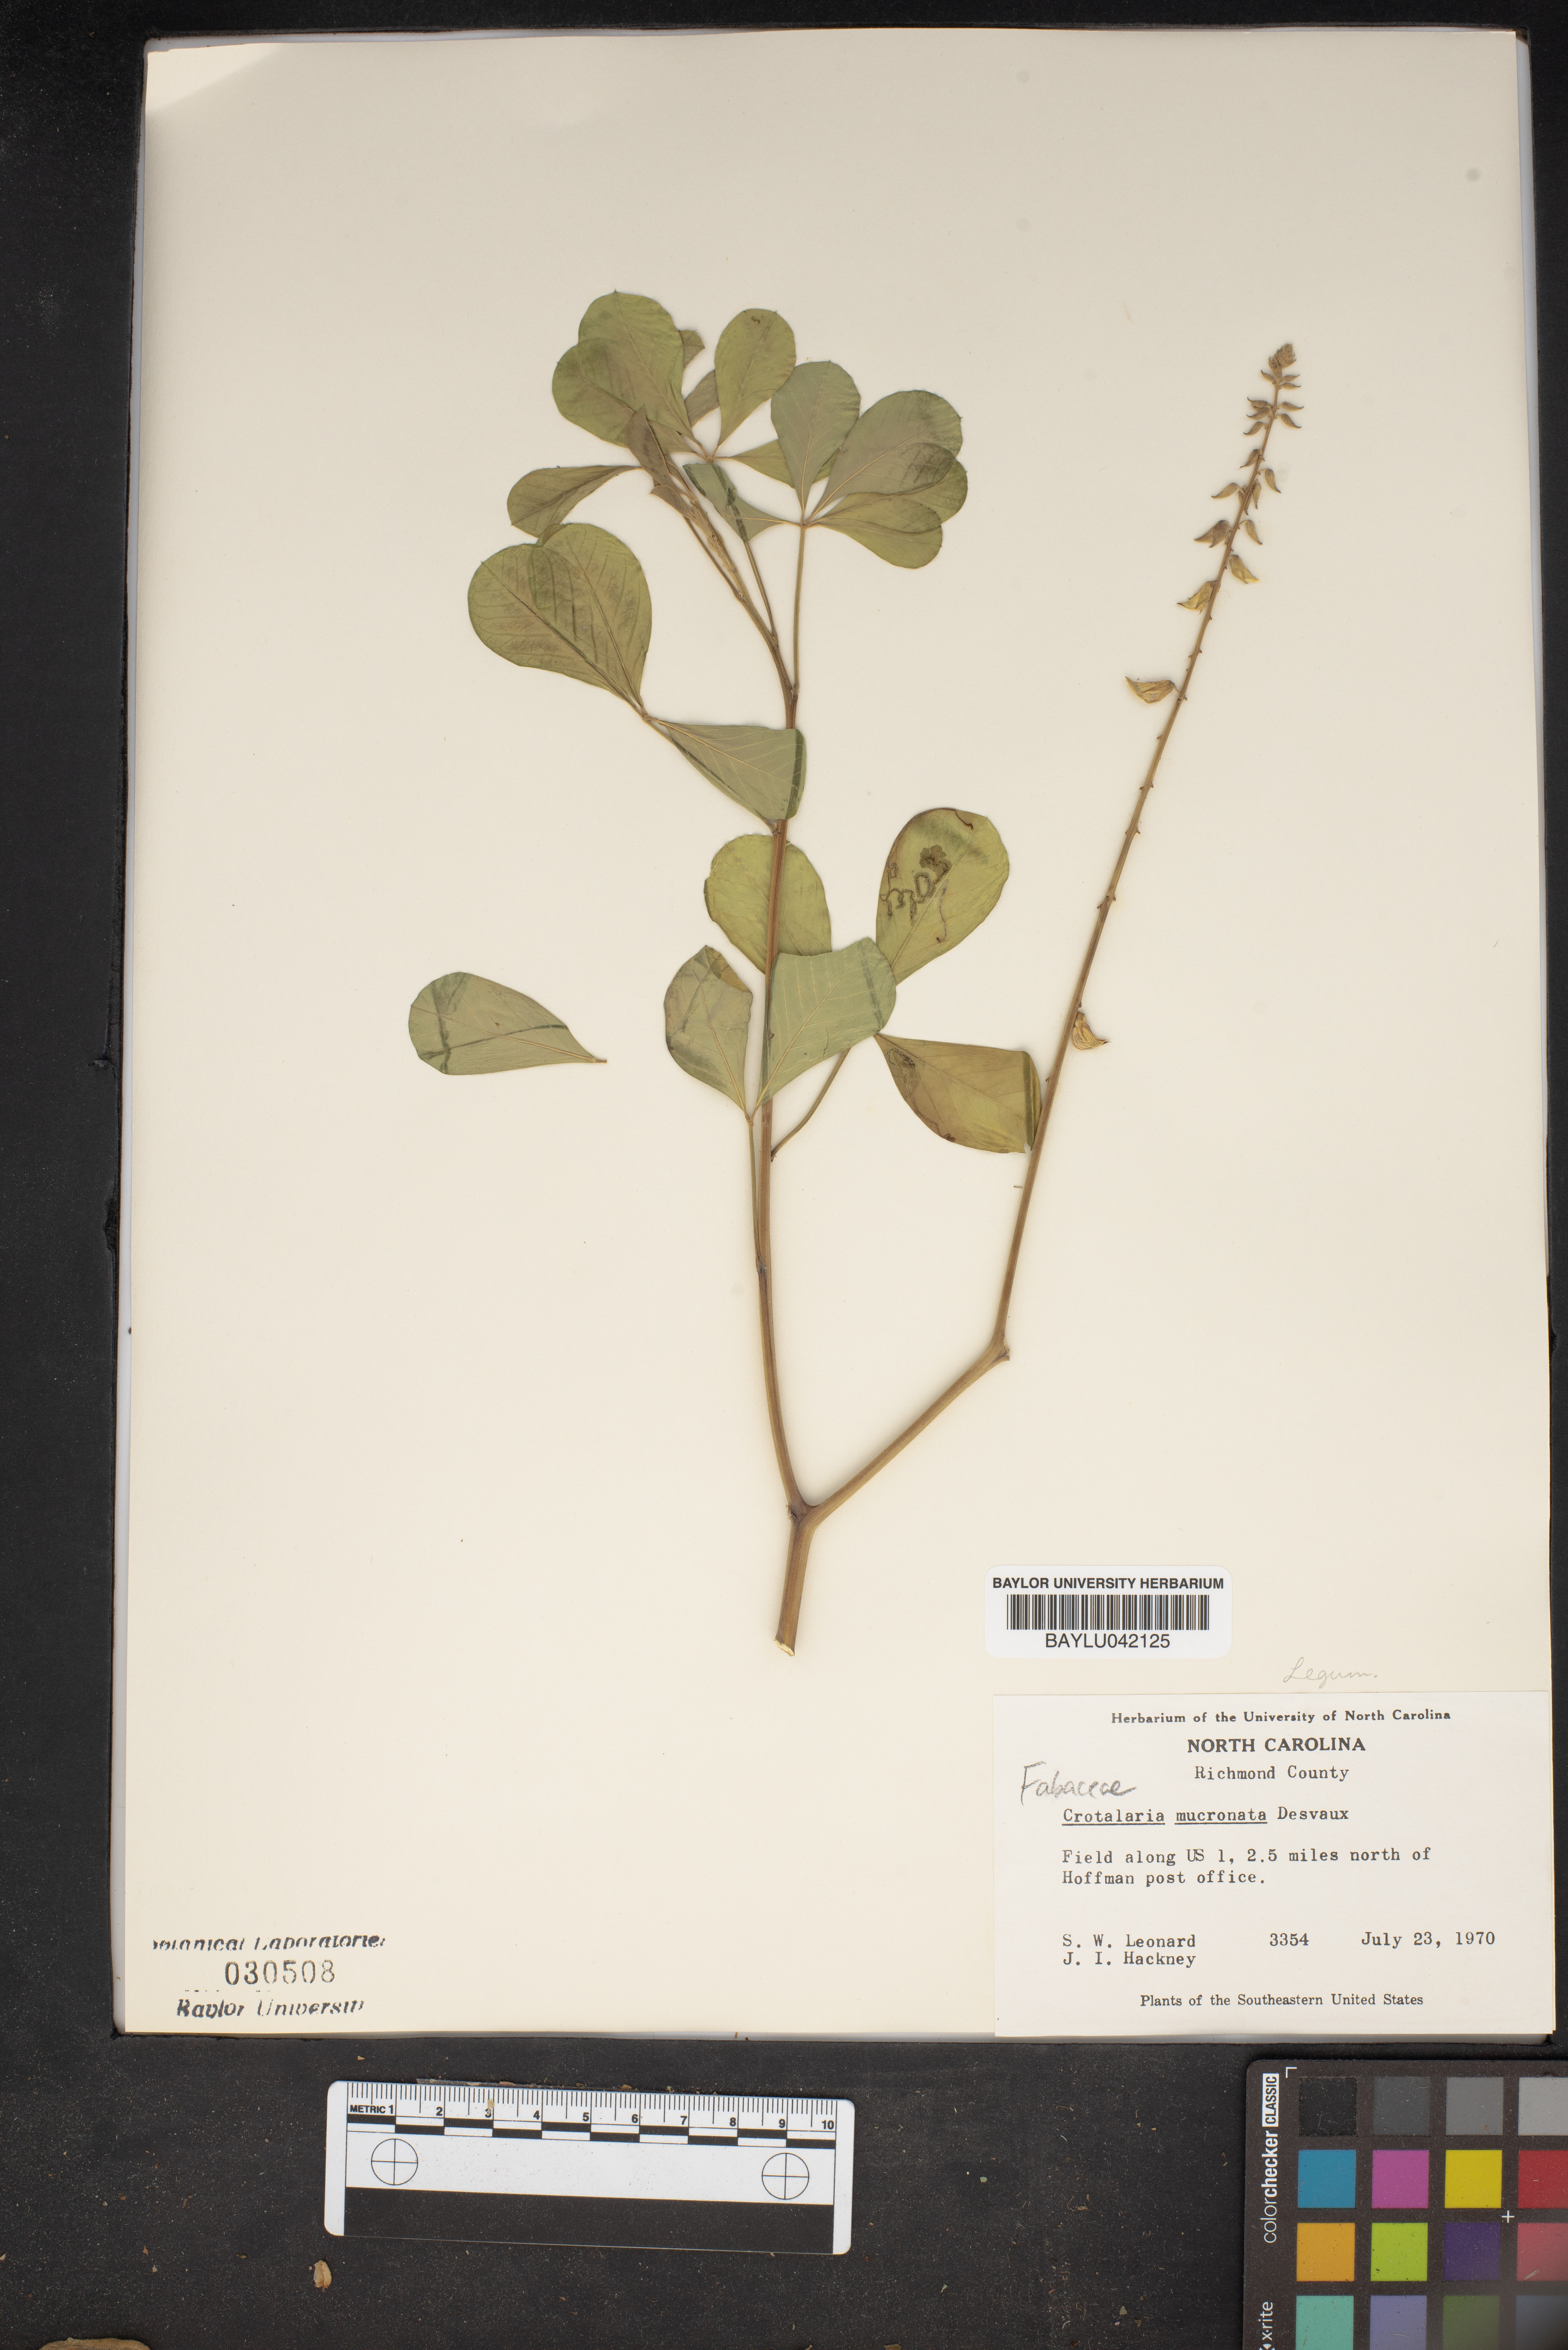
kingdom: Plantae
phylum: Tracheophyta
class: Magnoliopsida
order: Fabales
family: Fabaceae
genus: Crotalaria
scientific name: Crotalaria pallida
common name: Smooth rattlebox
